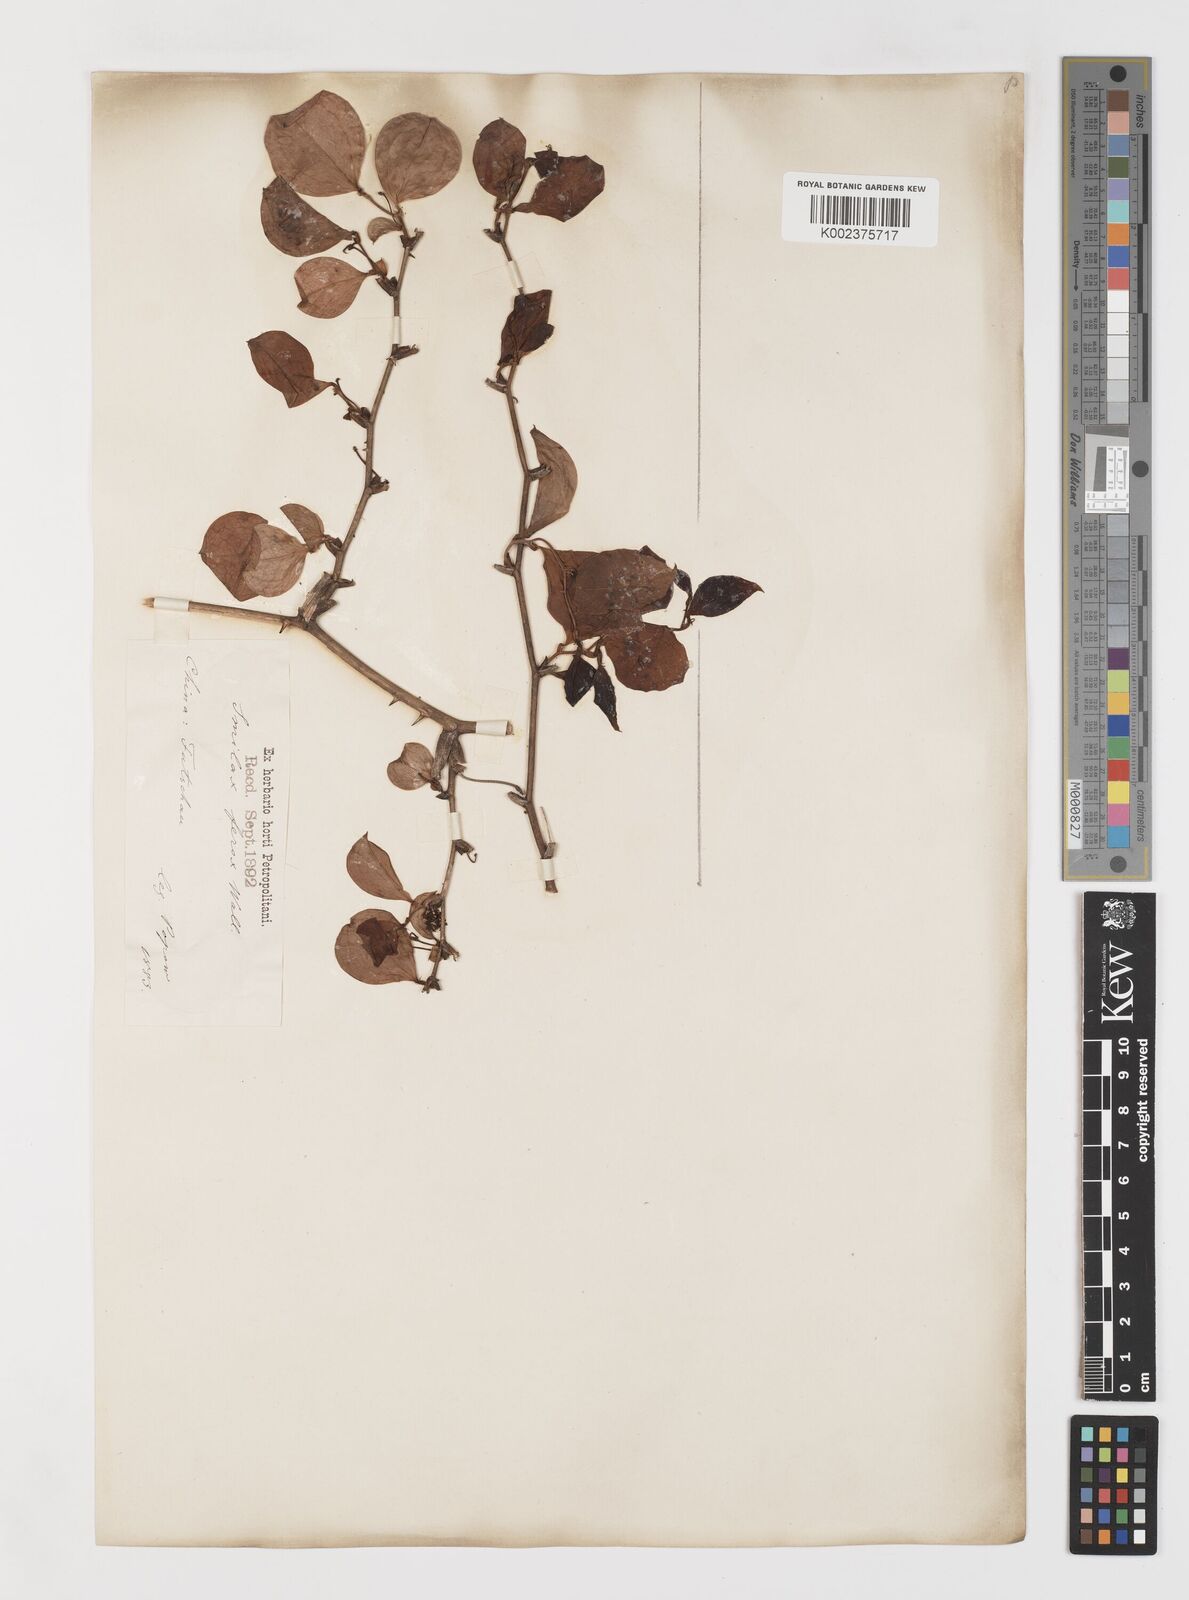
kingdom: Plantae
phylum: Tracheophyta
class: Liliopsida
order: Liliales
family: Smilacaceae
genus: Smilax
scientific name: Smilax china
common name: Chinaroot
